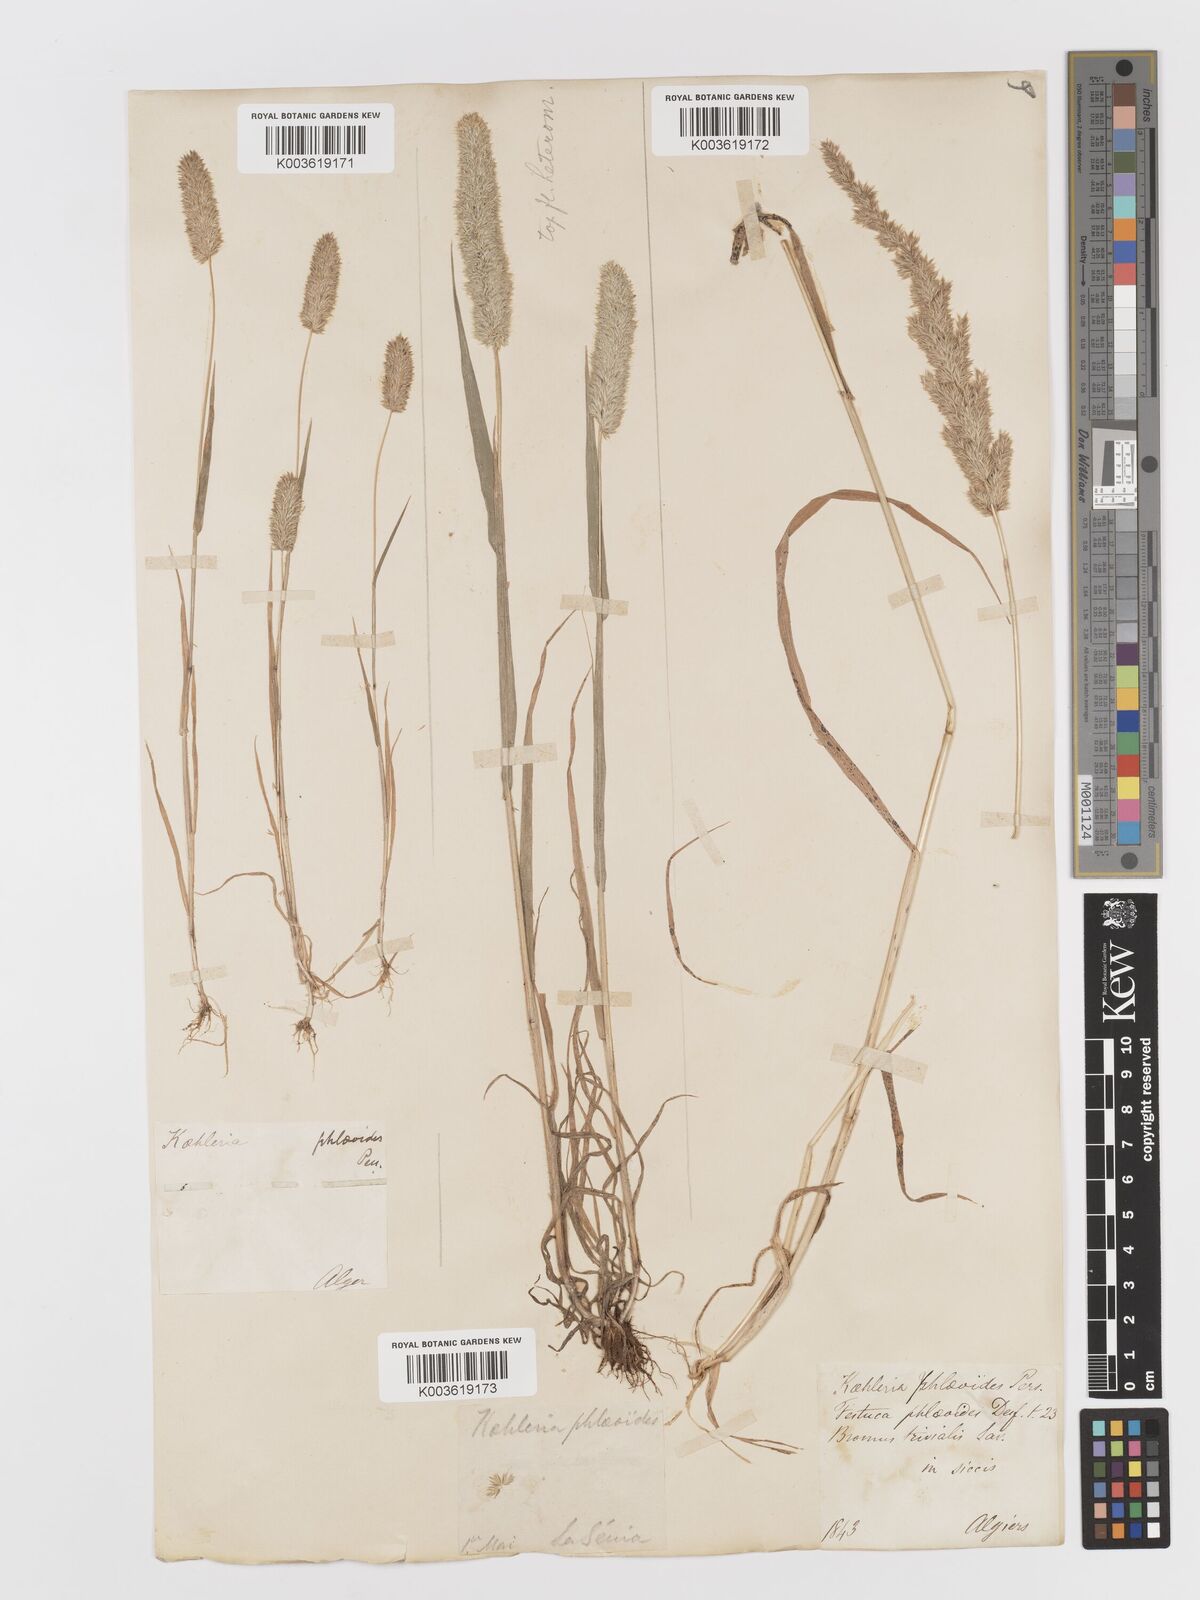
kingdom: Plantae
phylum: Tracheophyta
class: Liliopsida
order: Poales
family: Poaceae
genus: Rostraria
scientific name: Rostraria cristata
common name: Mediterranean hair-grass
